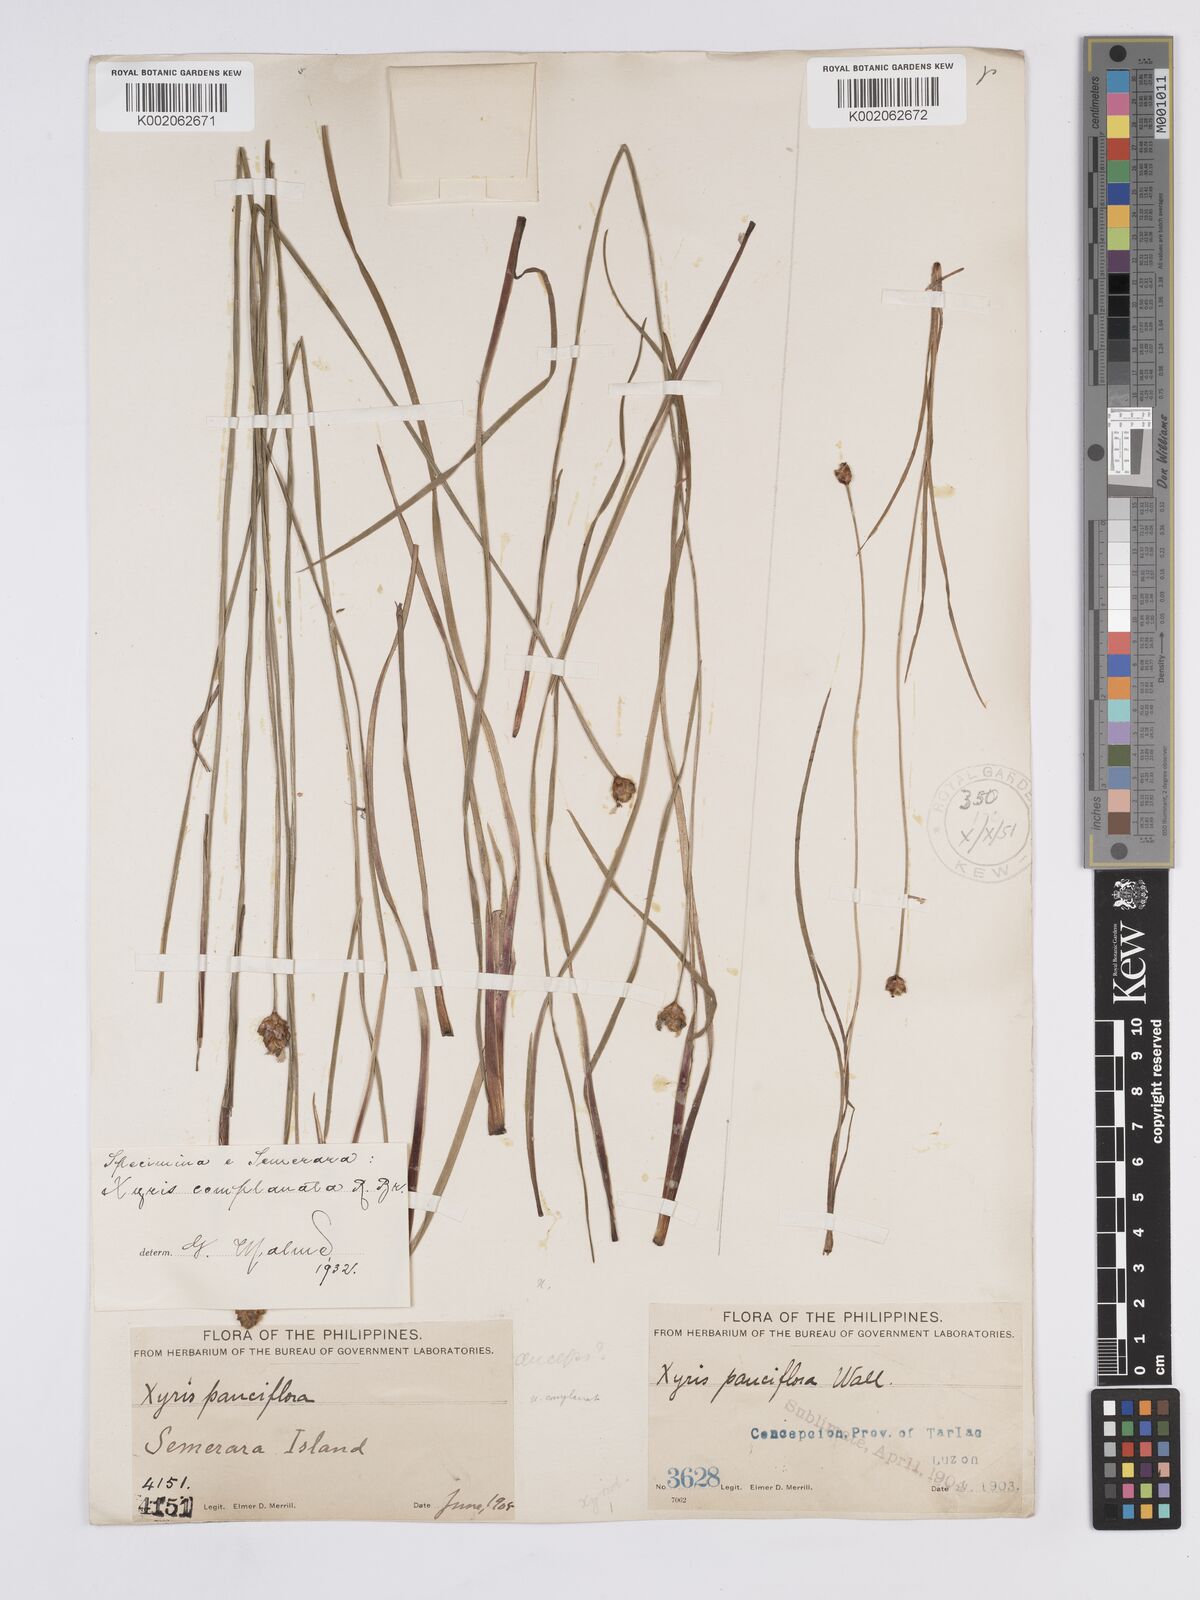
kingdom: Plantae
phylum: Tracheophyta
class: Liliopsida
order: Poales
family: Xyridaceae
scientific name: Xyridaceae
